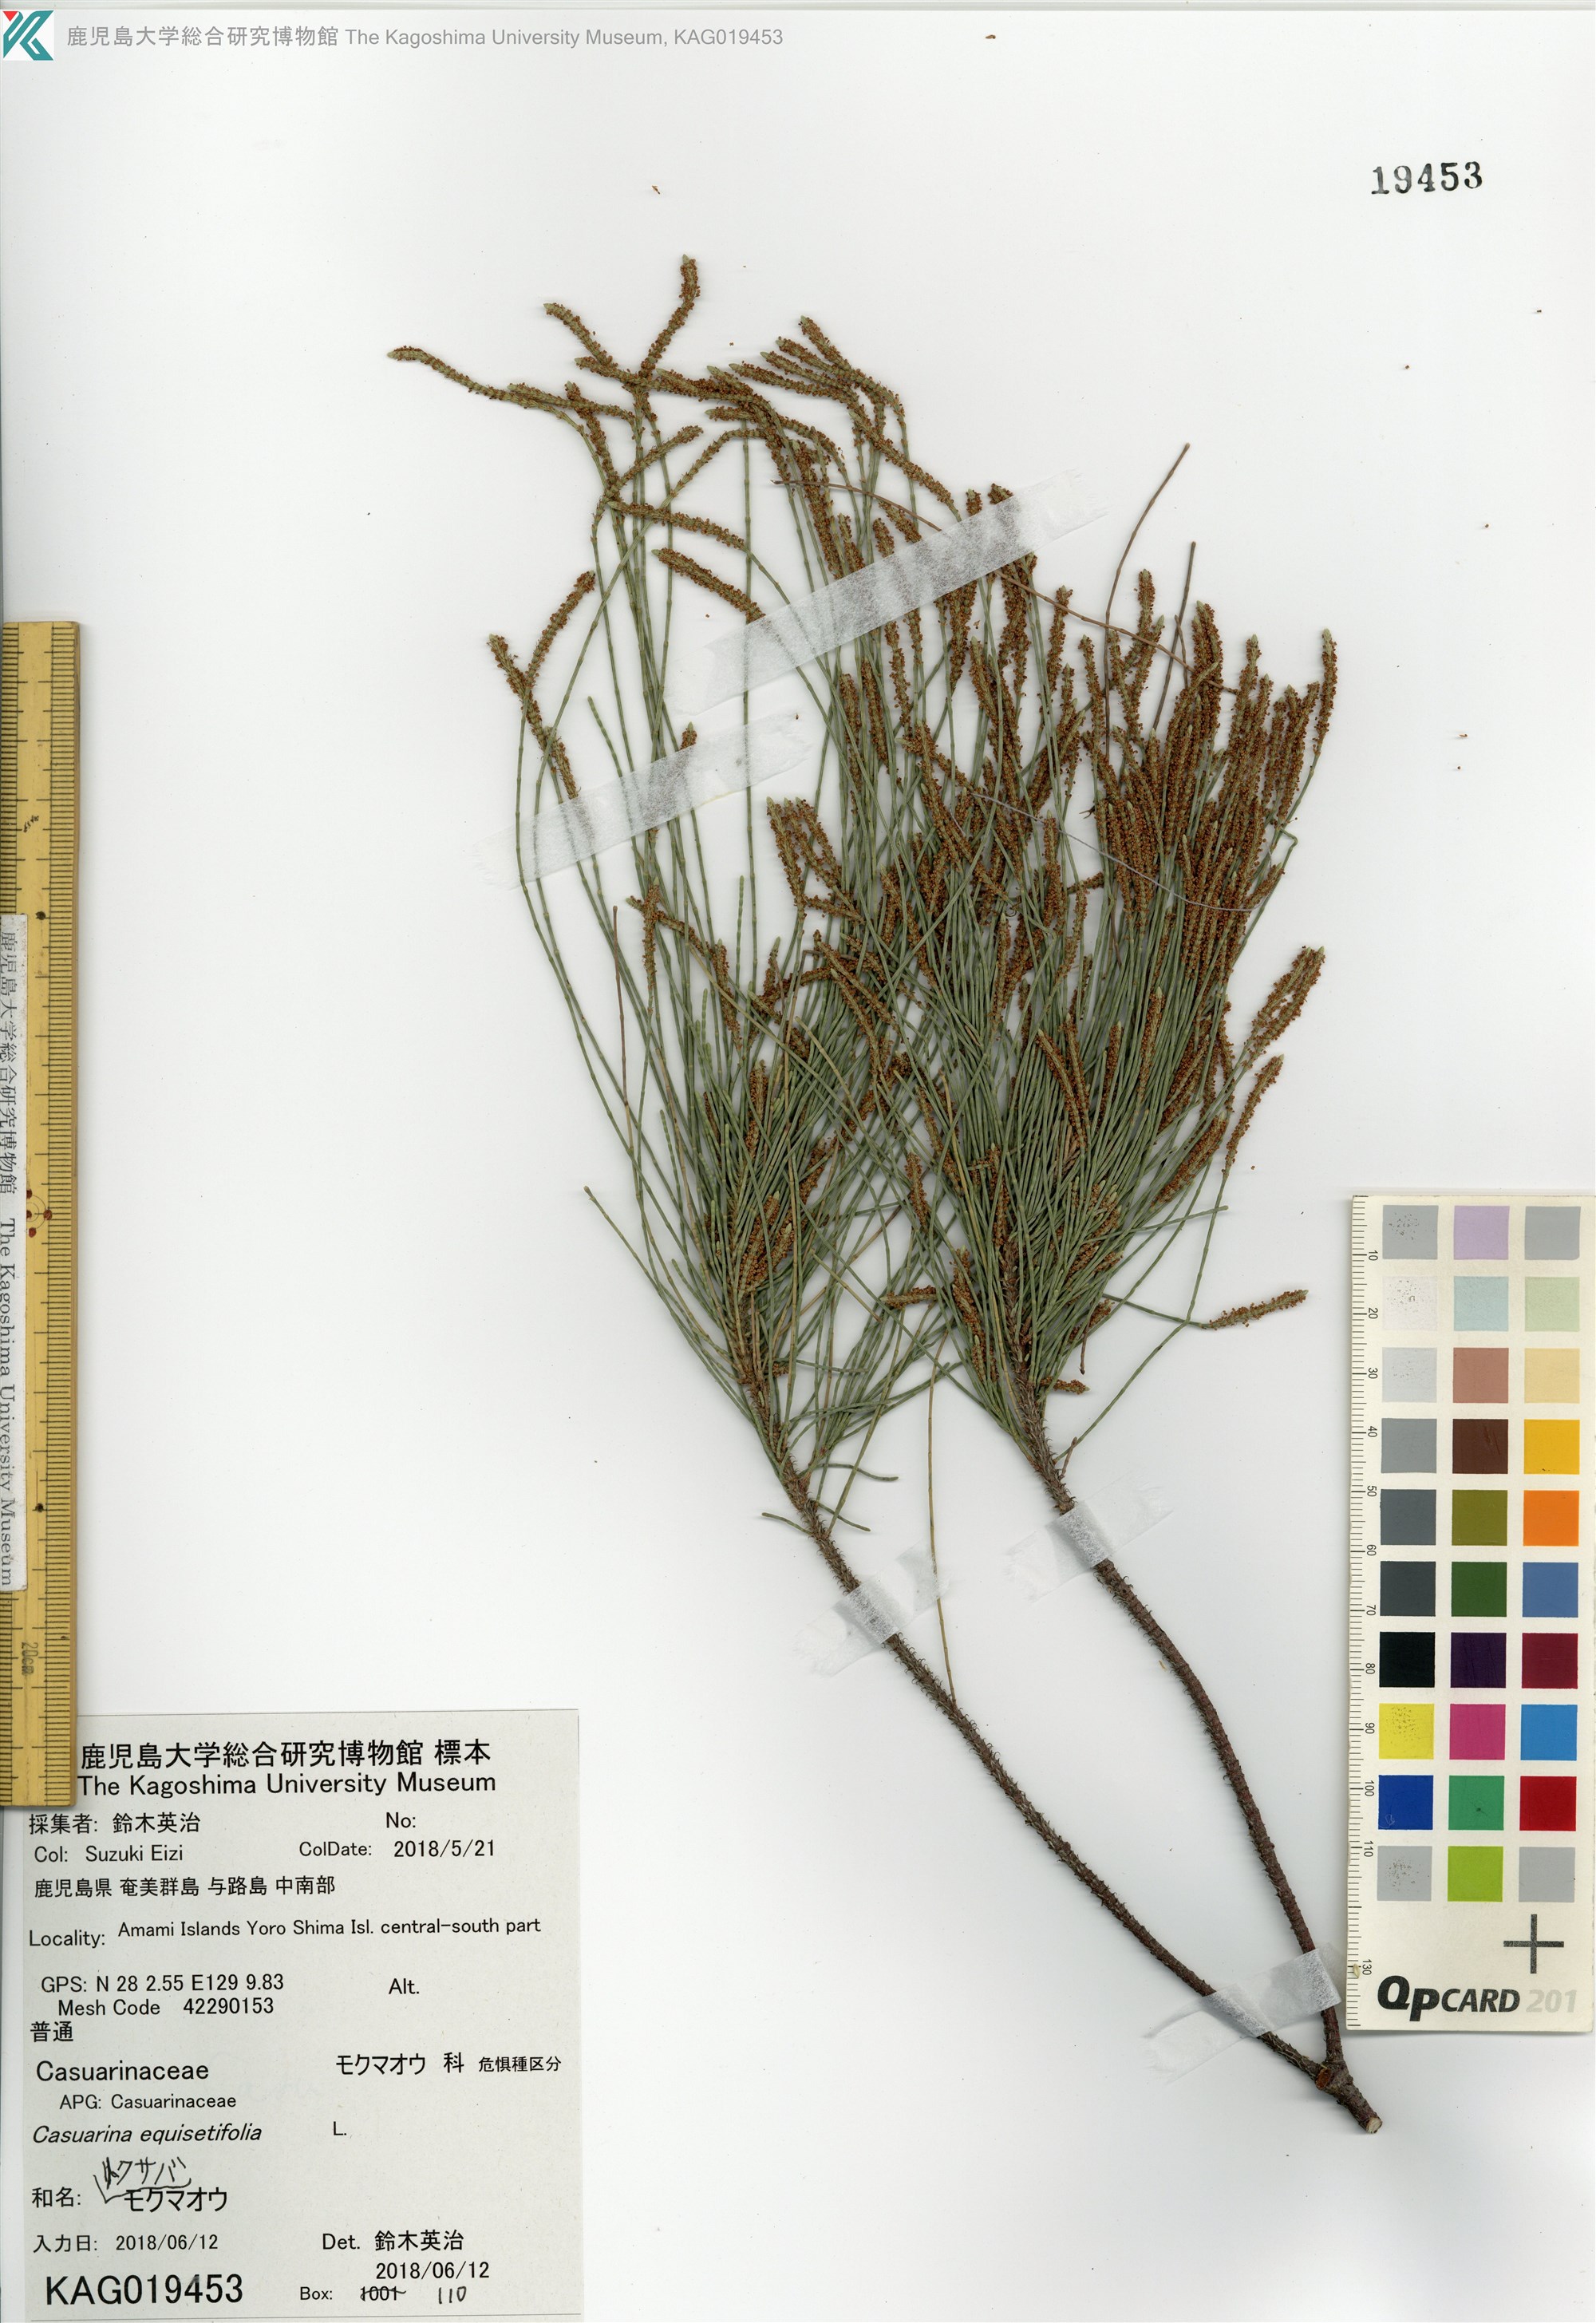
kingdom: Plantae
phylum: Tracheophyta
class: Magnoliopsida
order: Fagales
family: Casuarinaceae
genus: Casuarina
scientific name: Casuarina equisetifolia
